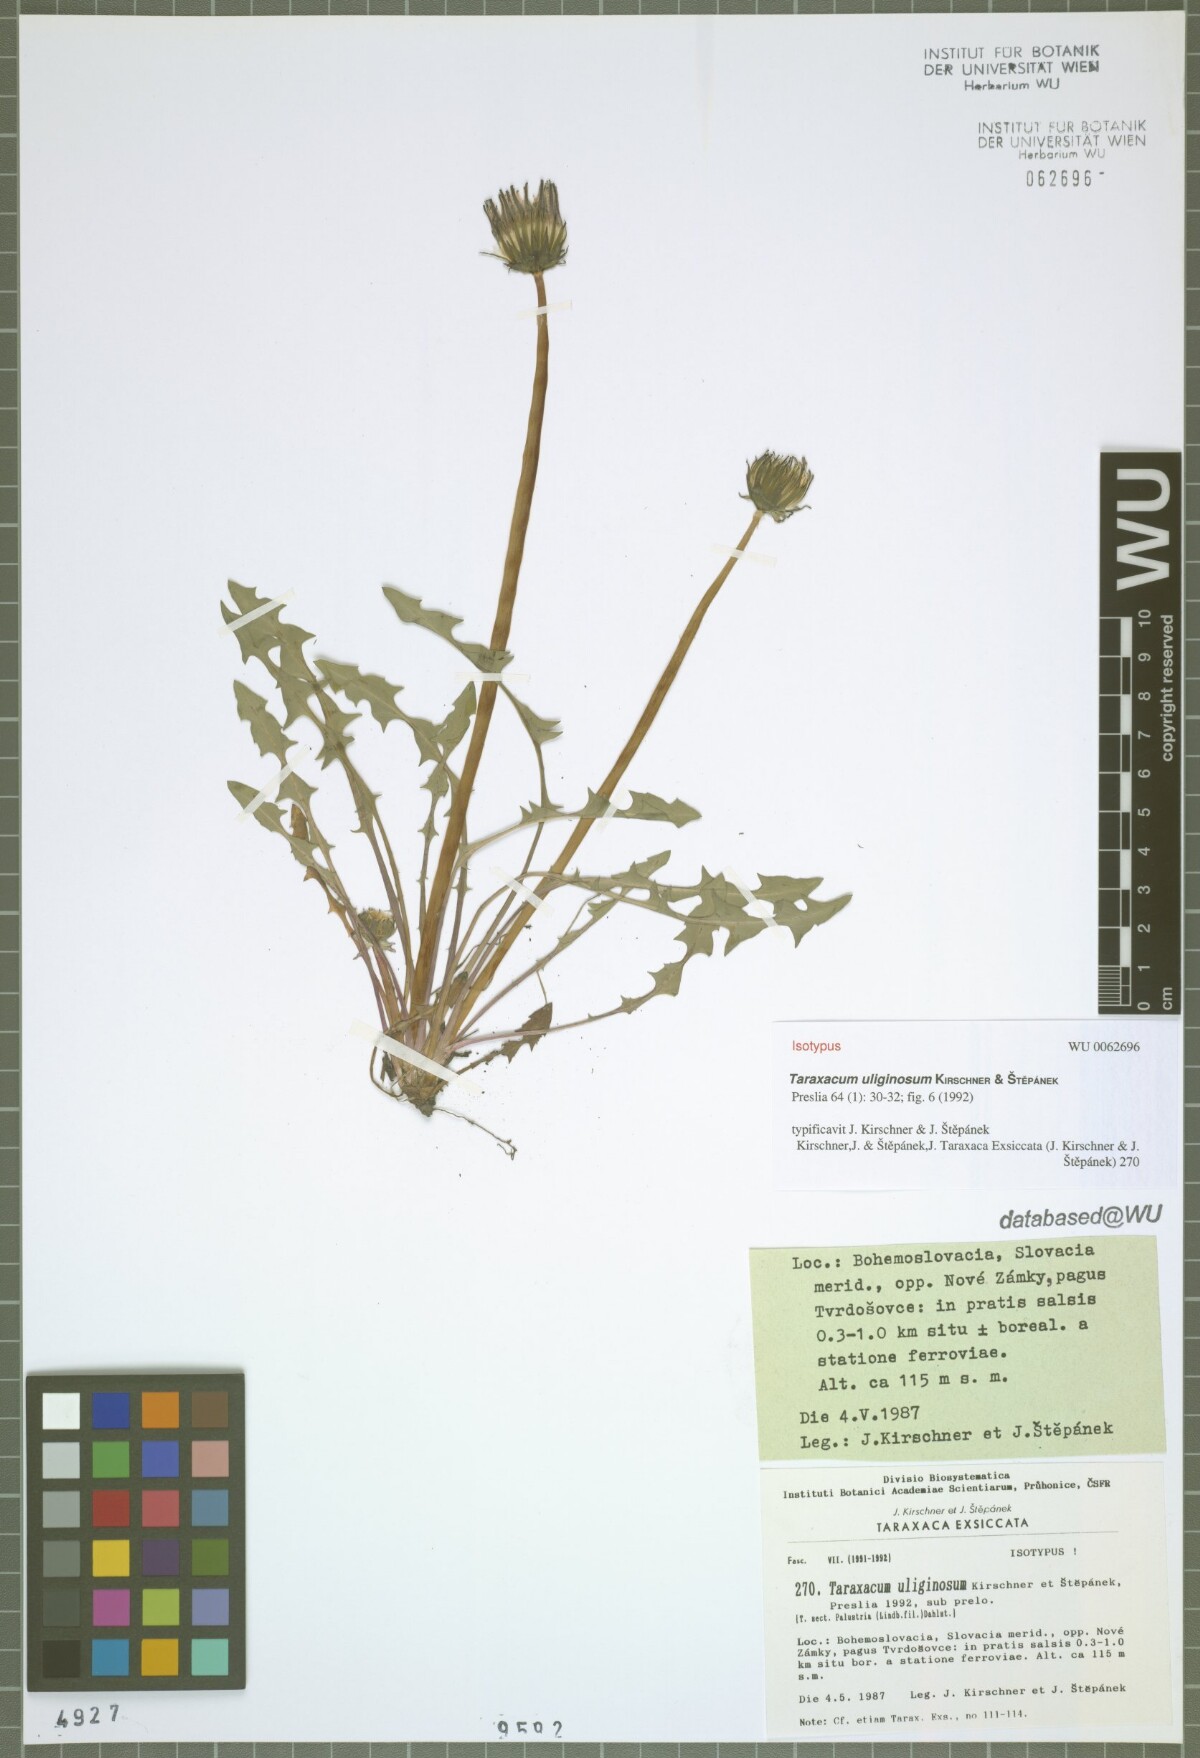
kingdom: Plantae
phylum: Tracheophyta
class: Magnoliopsida
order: Asterales
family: Asteraceae
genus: Taraxacum
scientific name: Taraxacum uliginosum
